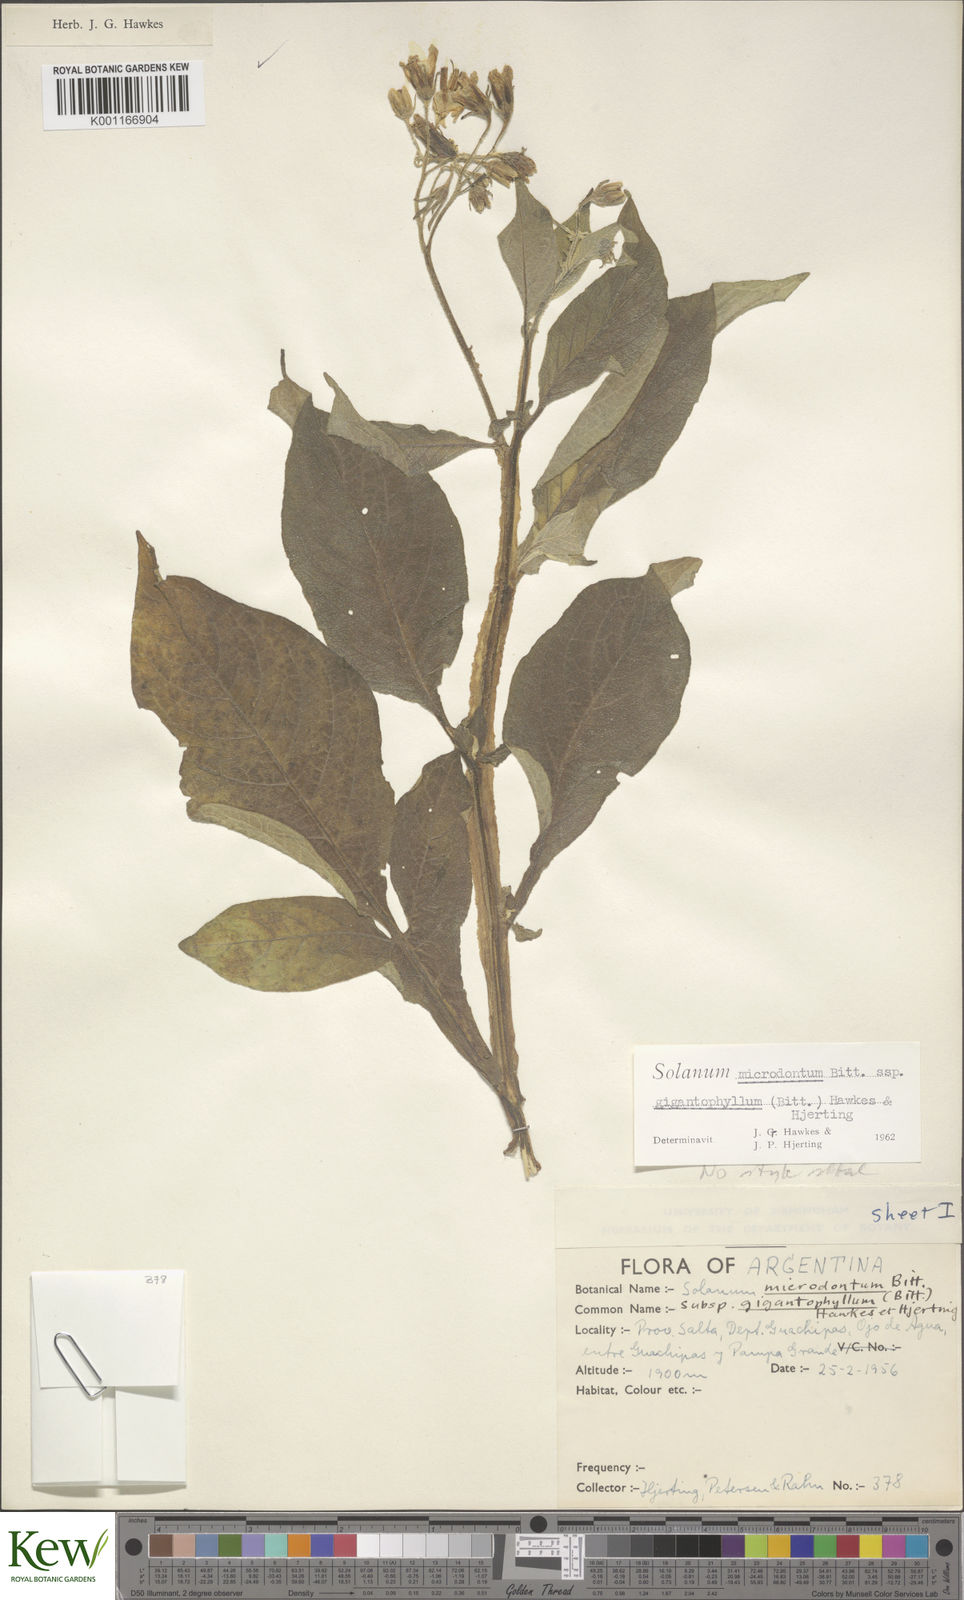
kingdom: Plantae
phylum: Tracheophyta
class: Magnoliopsida
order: Solanales
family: Solanaceae
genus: Solanum
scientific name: Solanum microdontum
